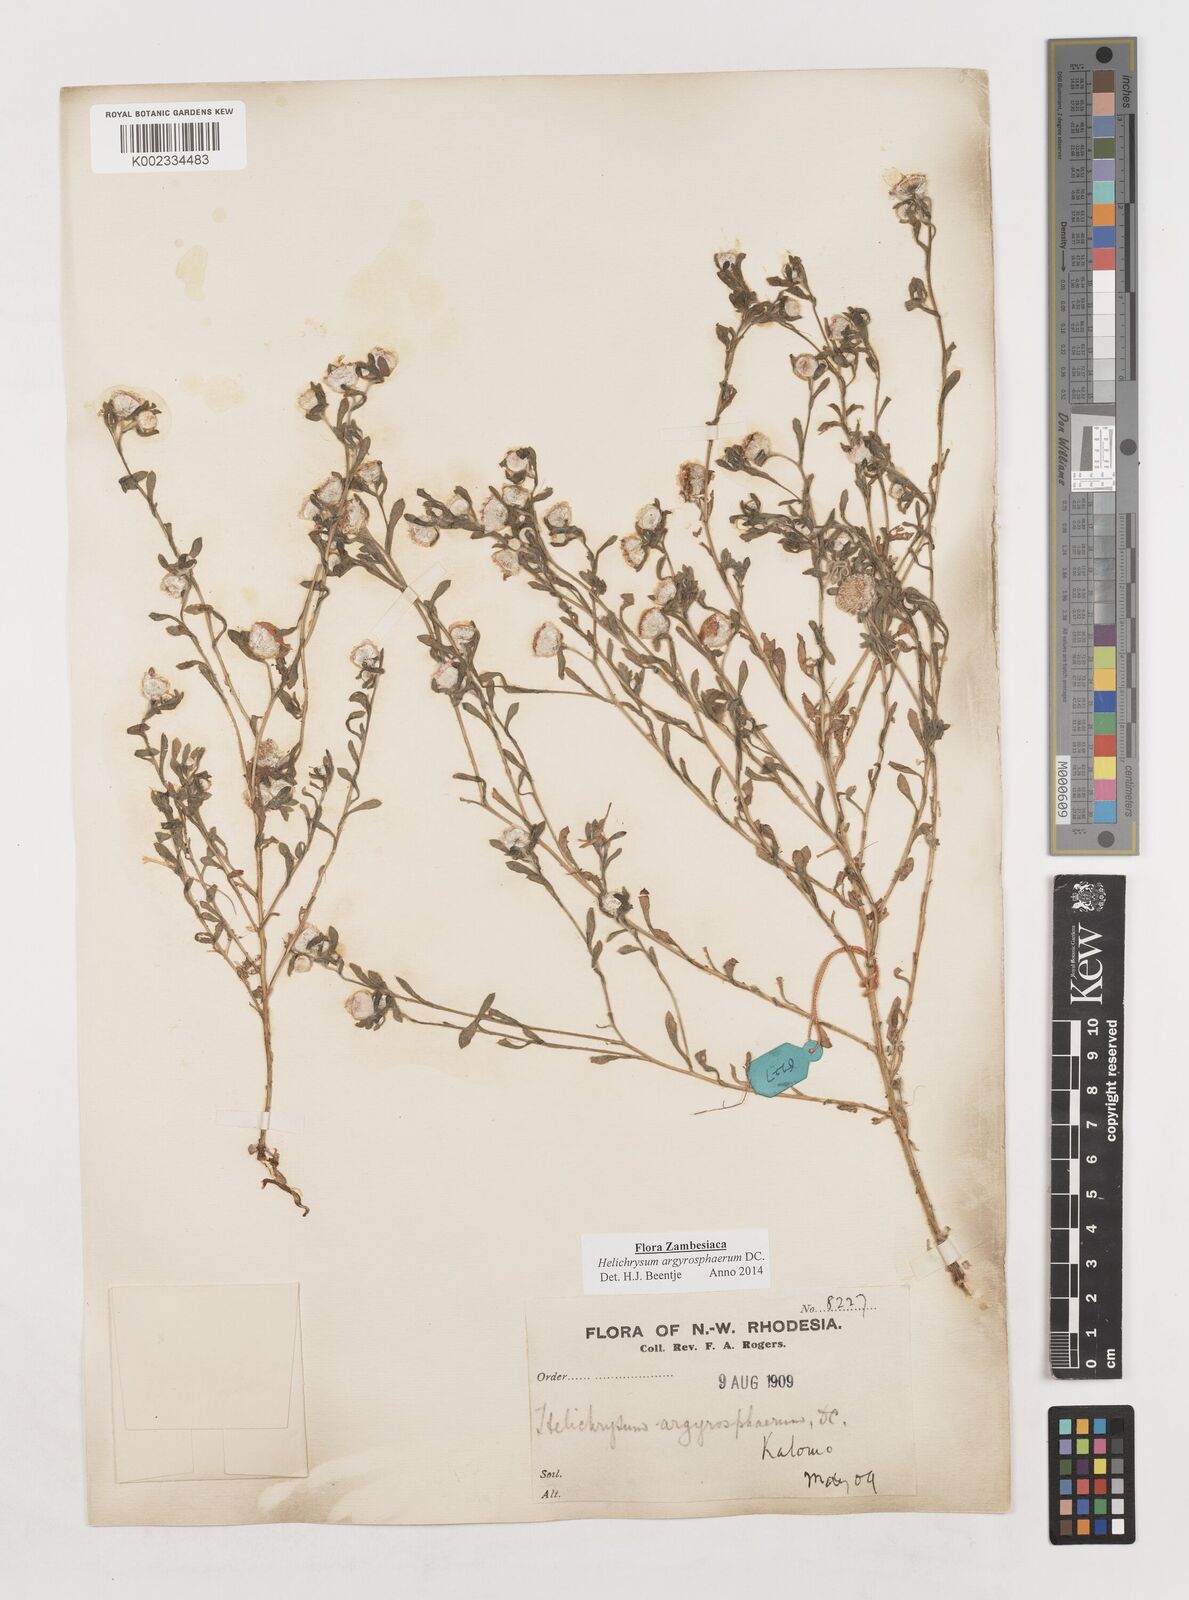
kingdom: Plantae
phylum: Tracheophyta
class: Magnoliopsida
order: Asterales
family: Asteraceae
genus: Helichrysum
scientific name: Helichrysum argyrosphaerum
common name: Wild everlasting
